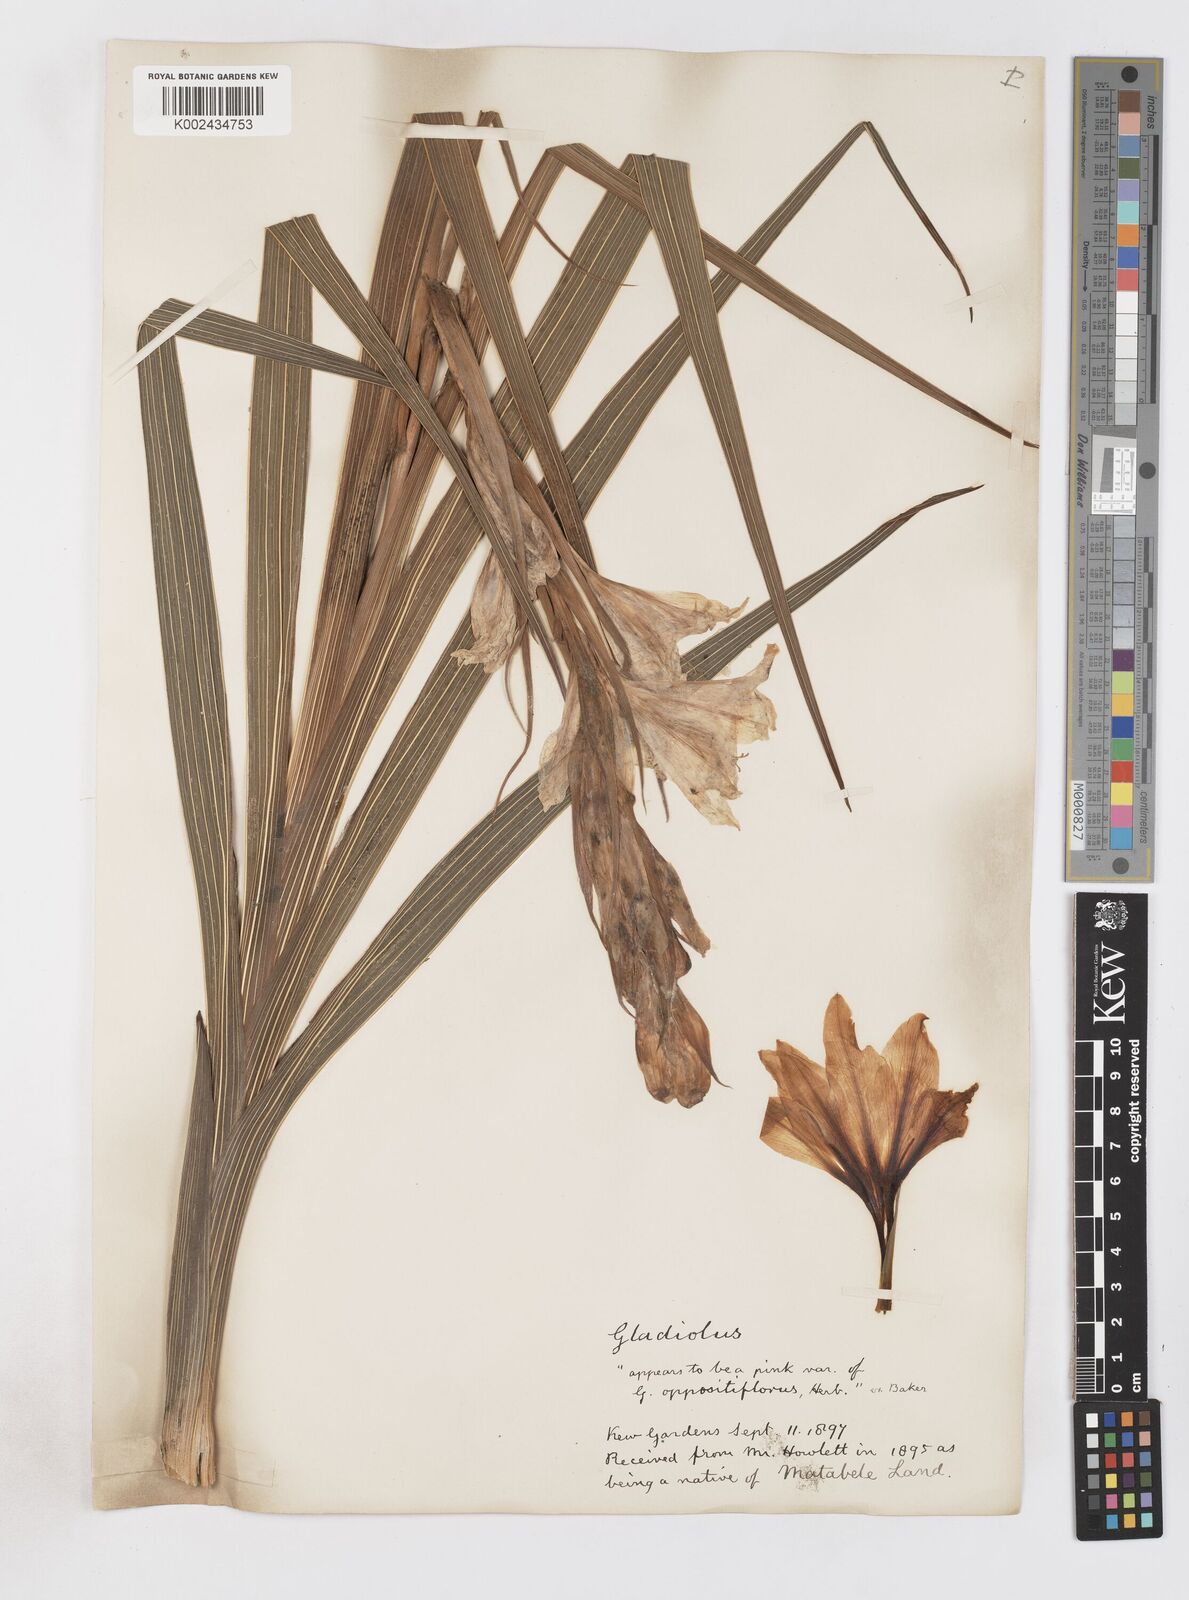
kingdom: Plantae
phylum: Tracheophyta
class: Liliopsida
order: Asparagales
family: Iridaceae
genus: Gladiolus
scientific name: Gladiolus
